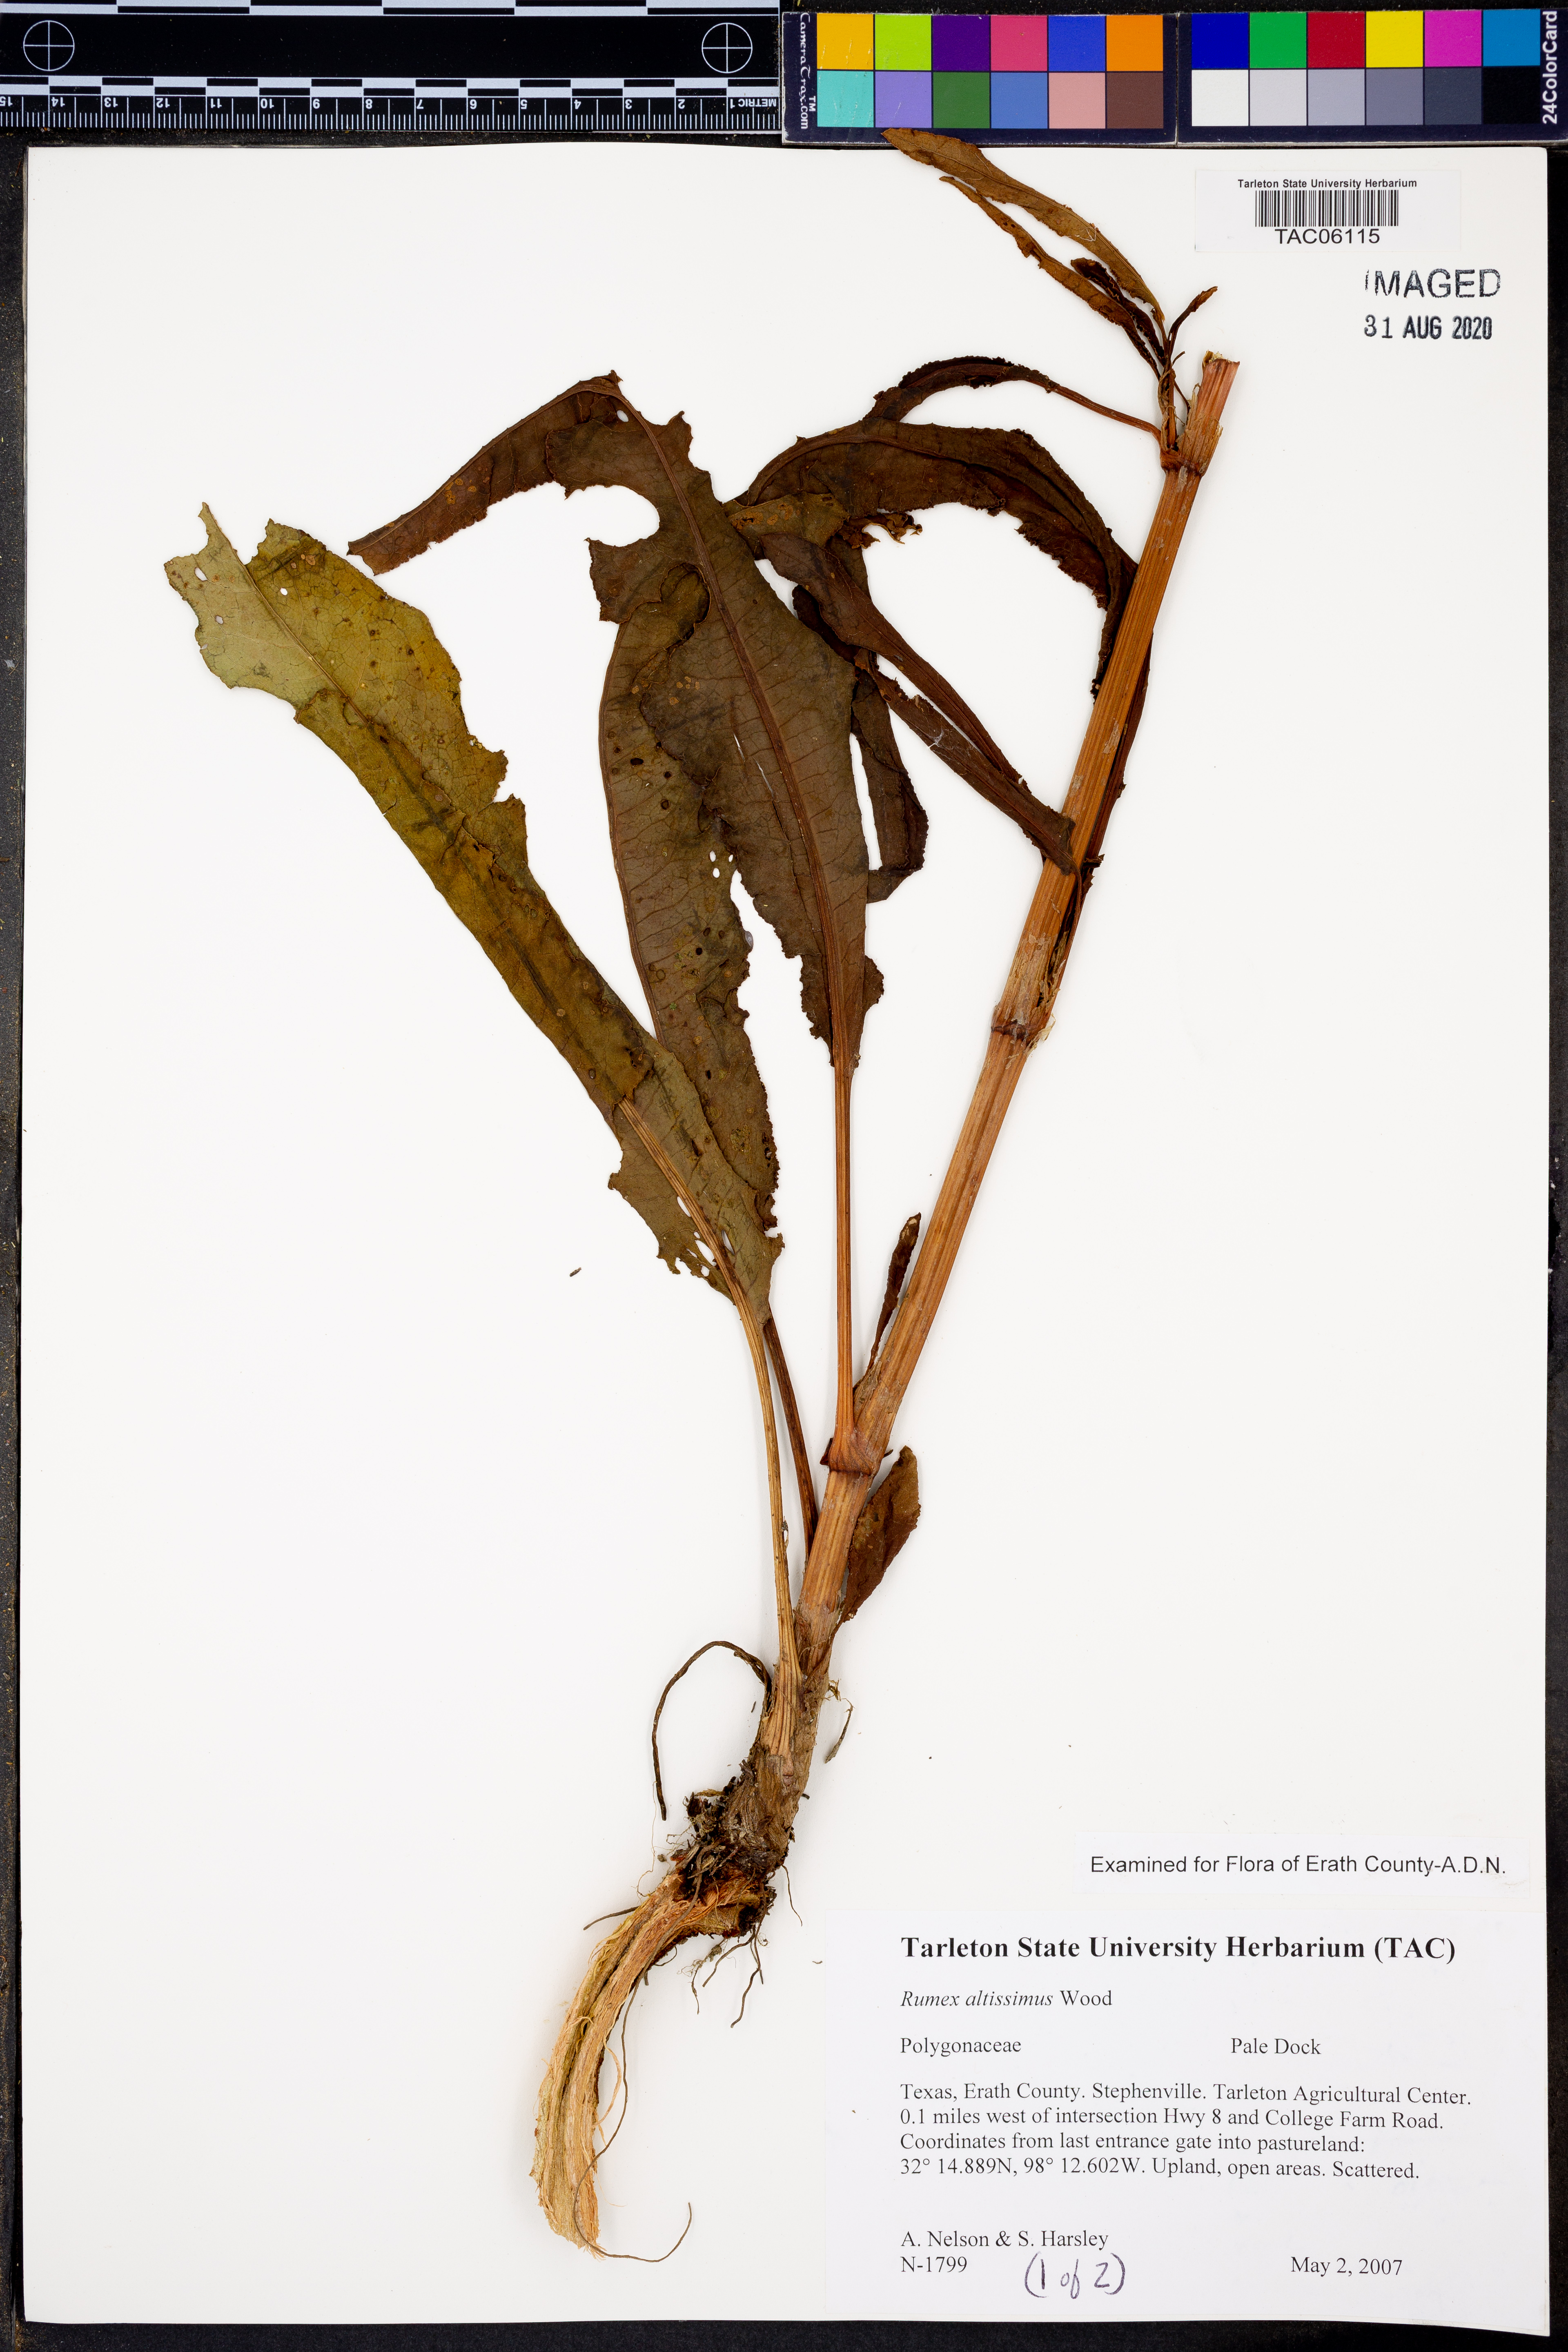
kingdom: Plantae
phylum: Tracheophyta
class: Magnoliopsida
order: Caryophyllales
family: Polygonaceae
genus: Rumex
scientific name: Rumex altissimus
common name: Smooth dock
